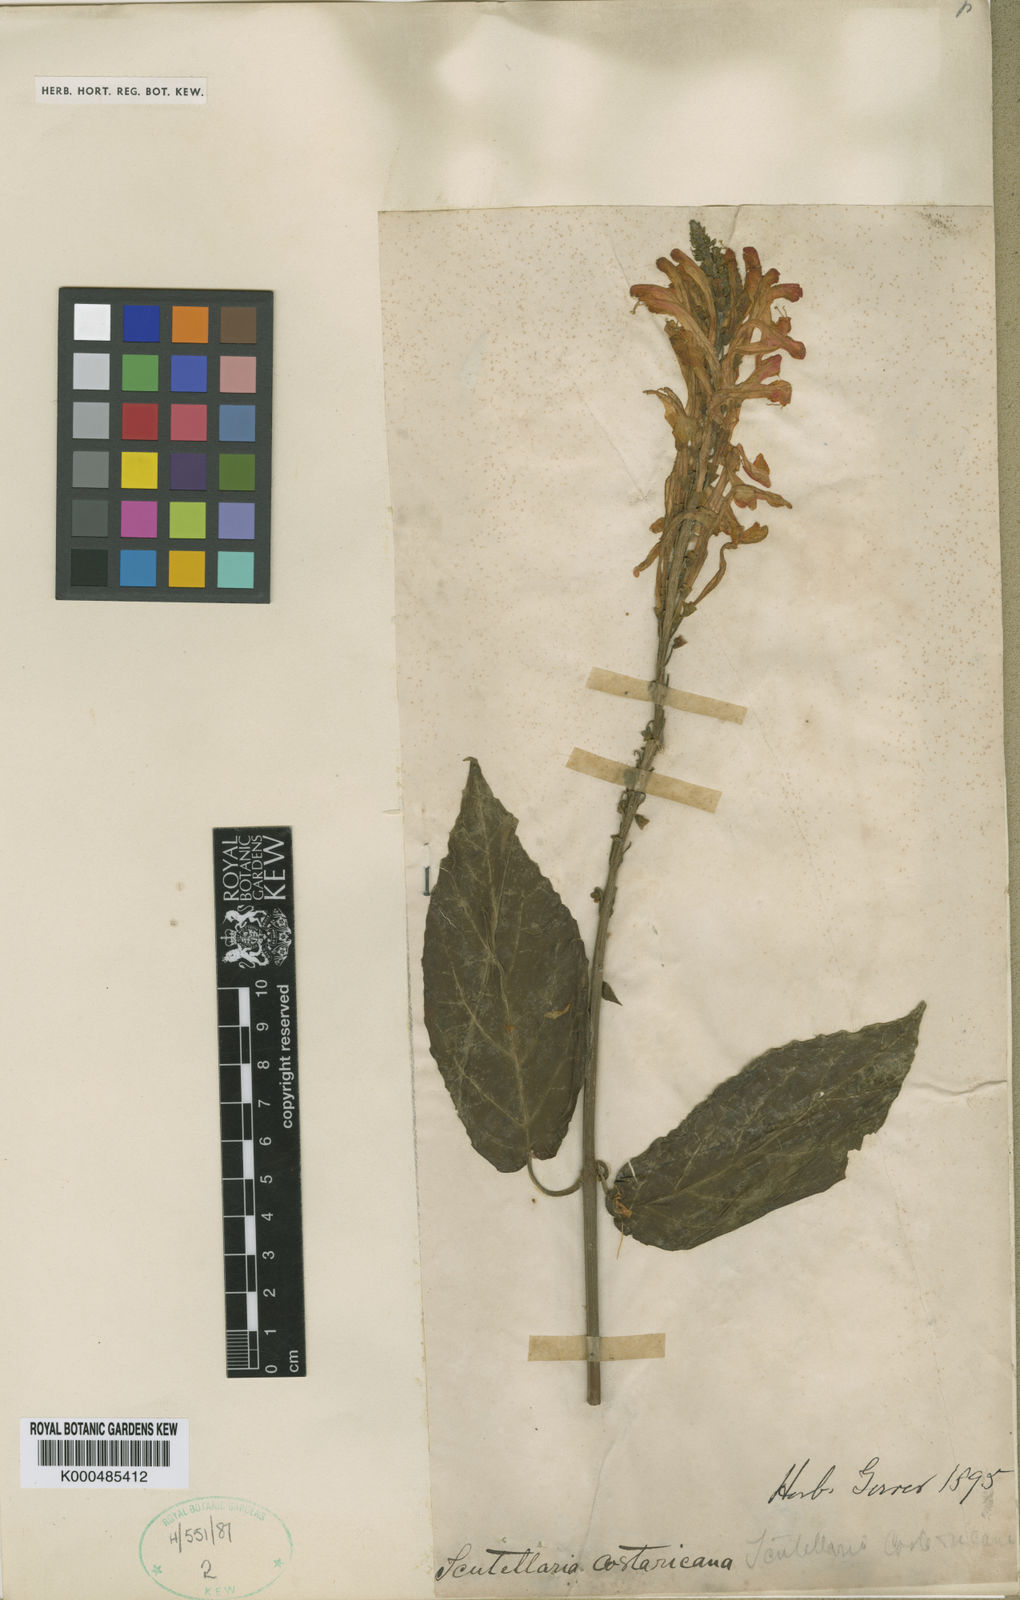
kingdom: Plantae
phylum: Tracheophyta
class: Magnoliopsida
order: Lamiales
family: Lamiaceae
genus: Scutellaria
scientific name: Scutellaria costaricana
